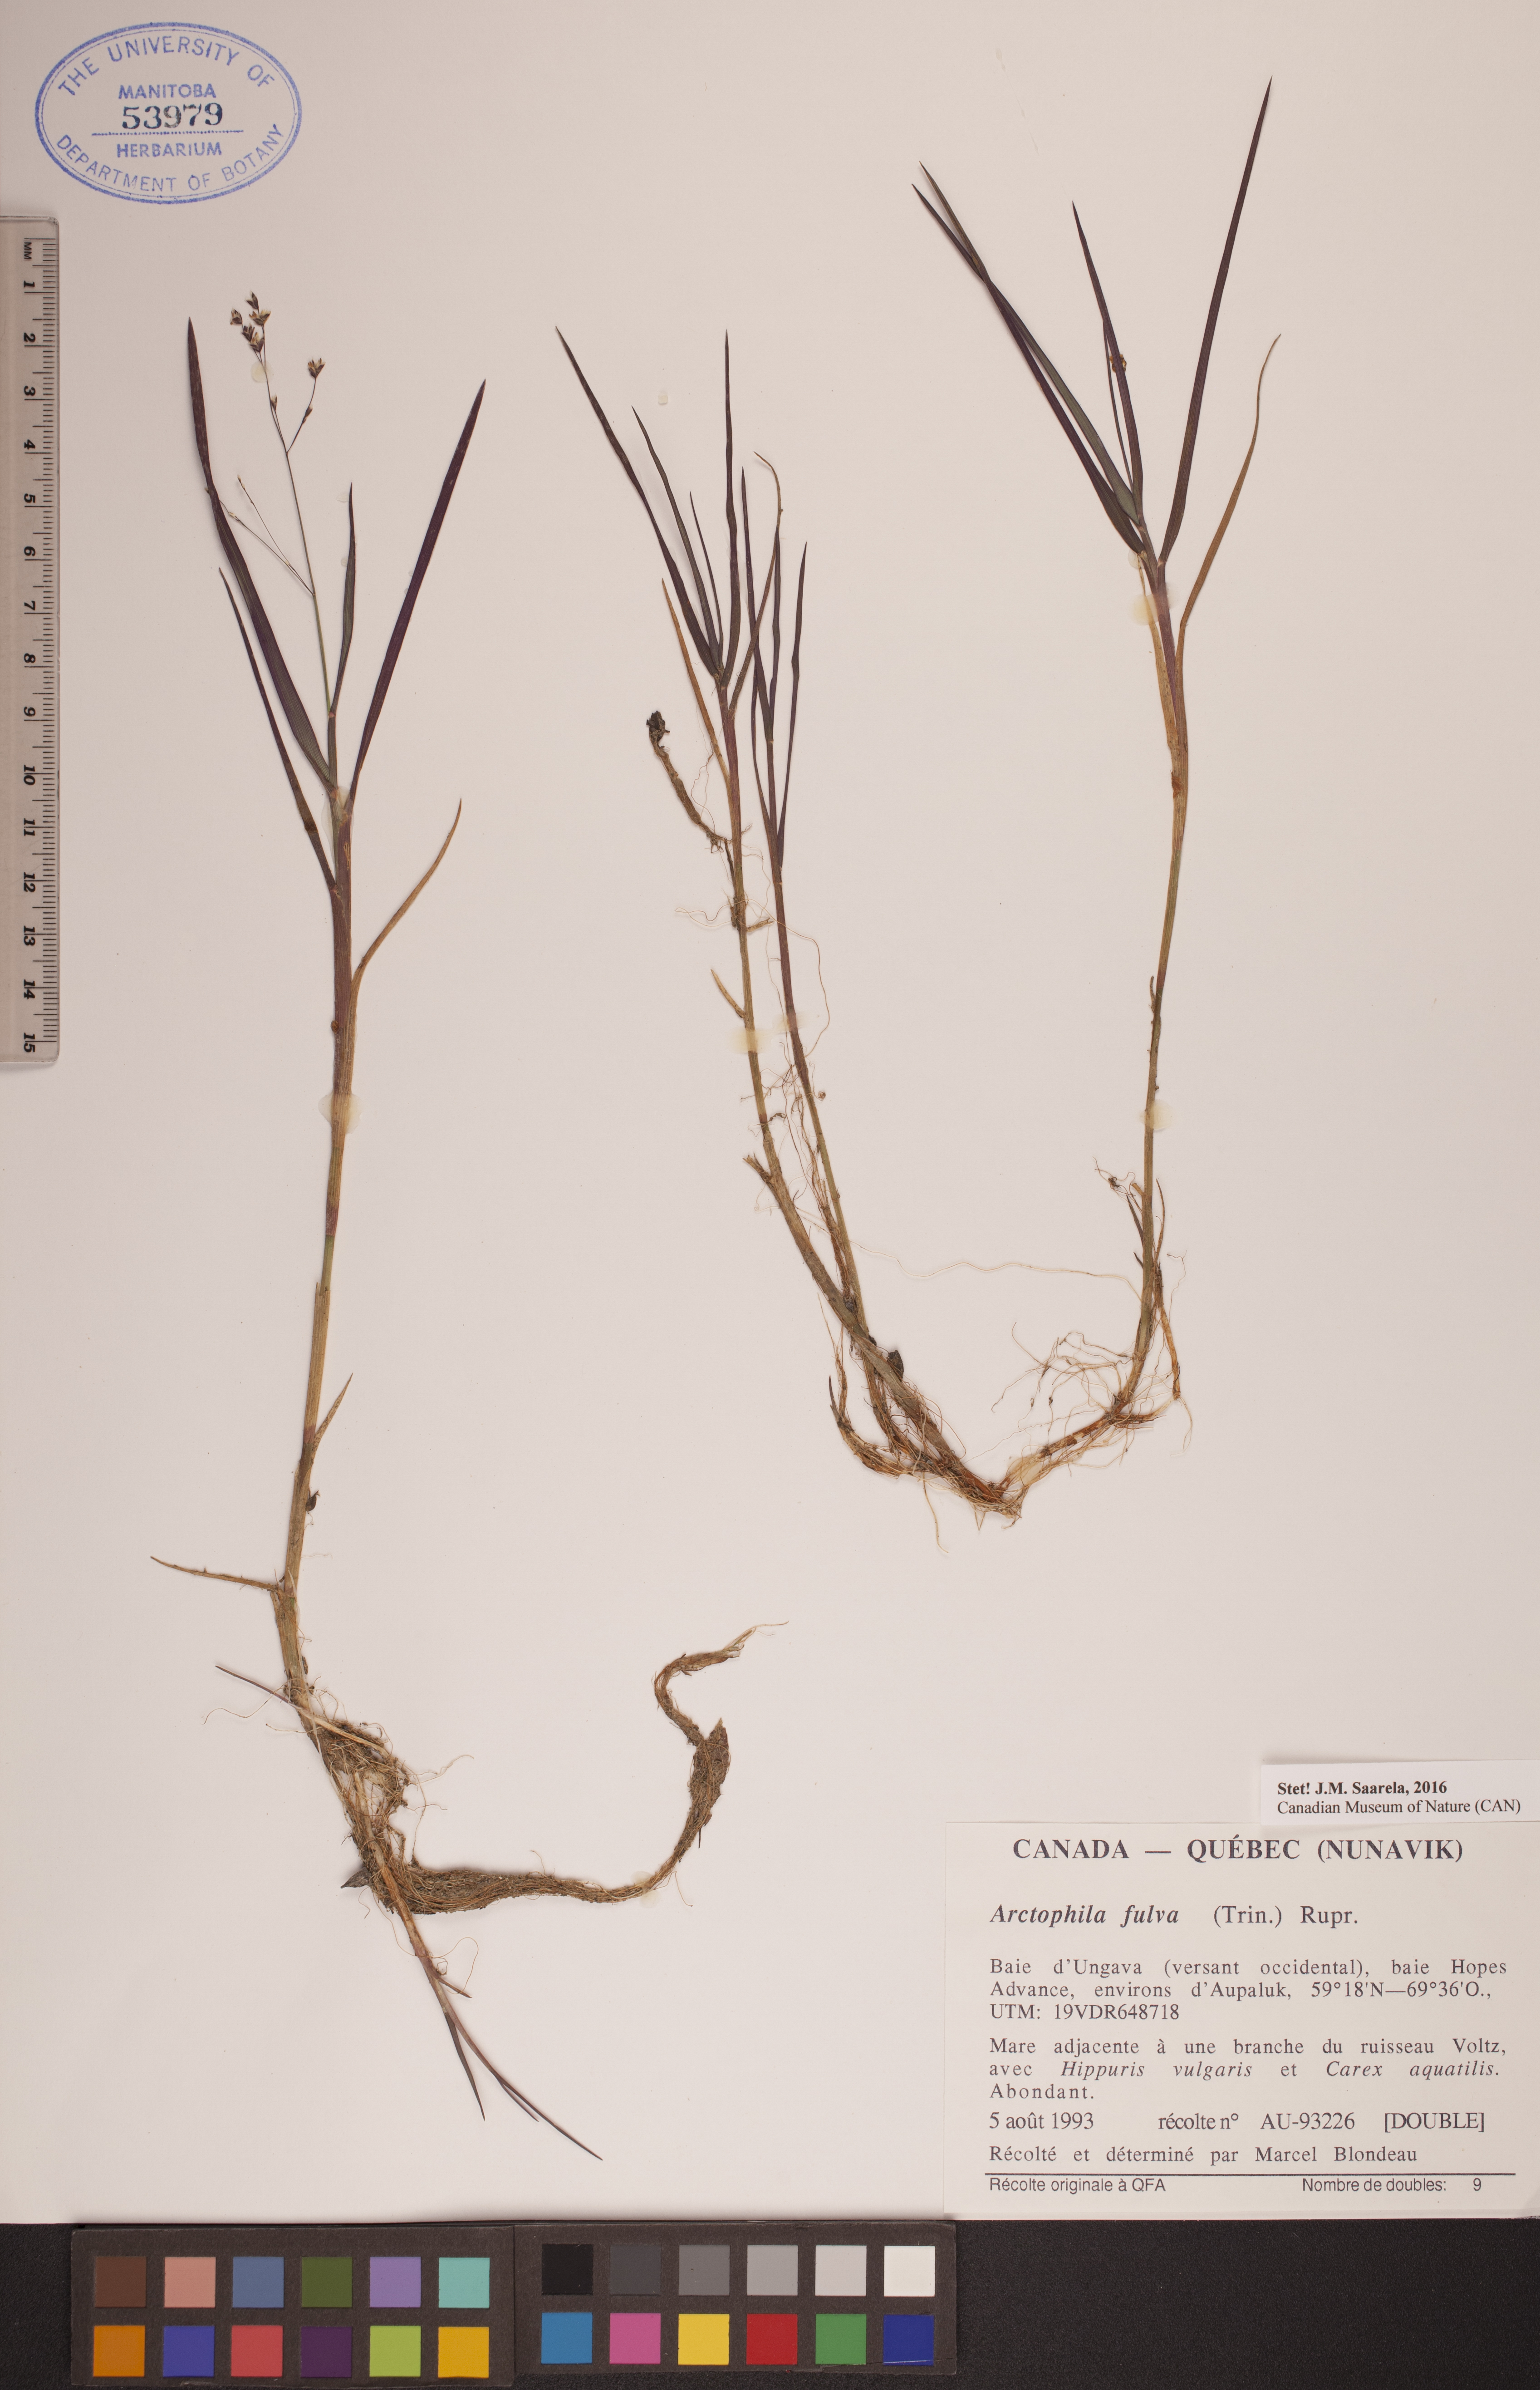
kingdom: Plantae
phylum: Tracheophyta
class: Liliopsida
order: Poales
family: Poaceae
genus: Dupontia
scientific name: Dupontia fulva
